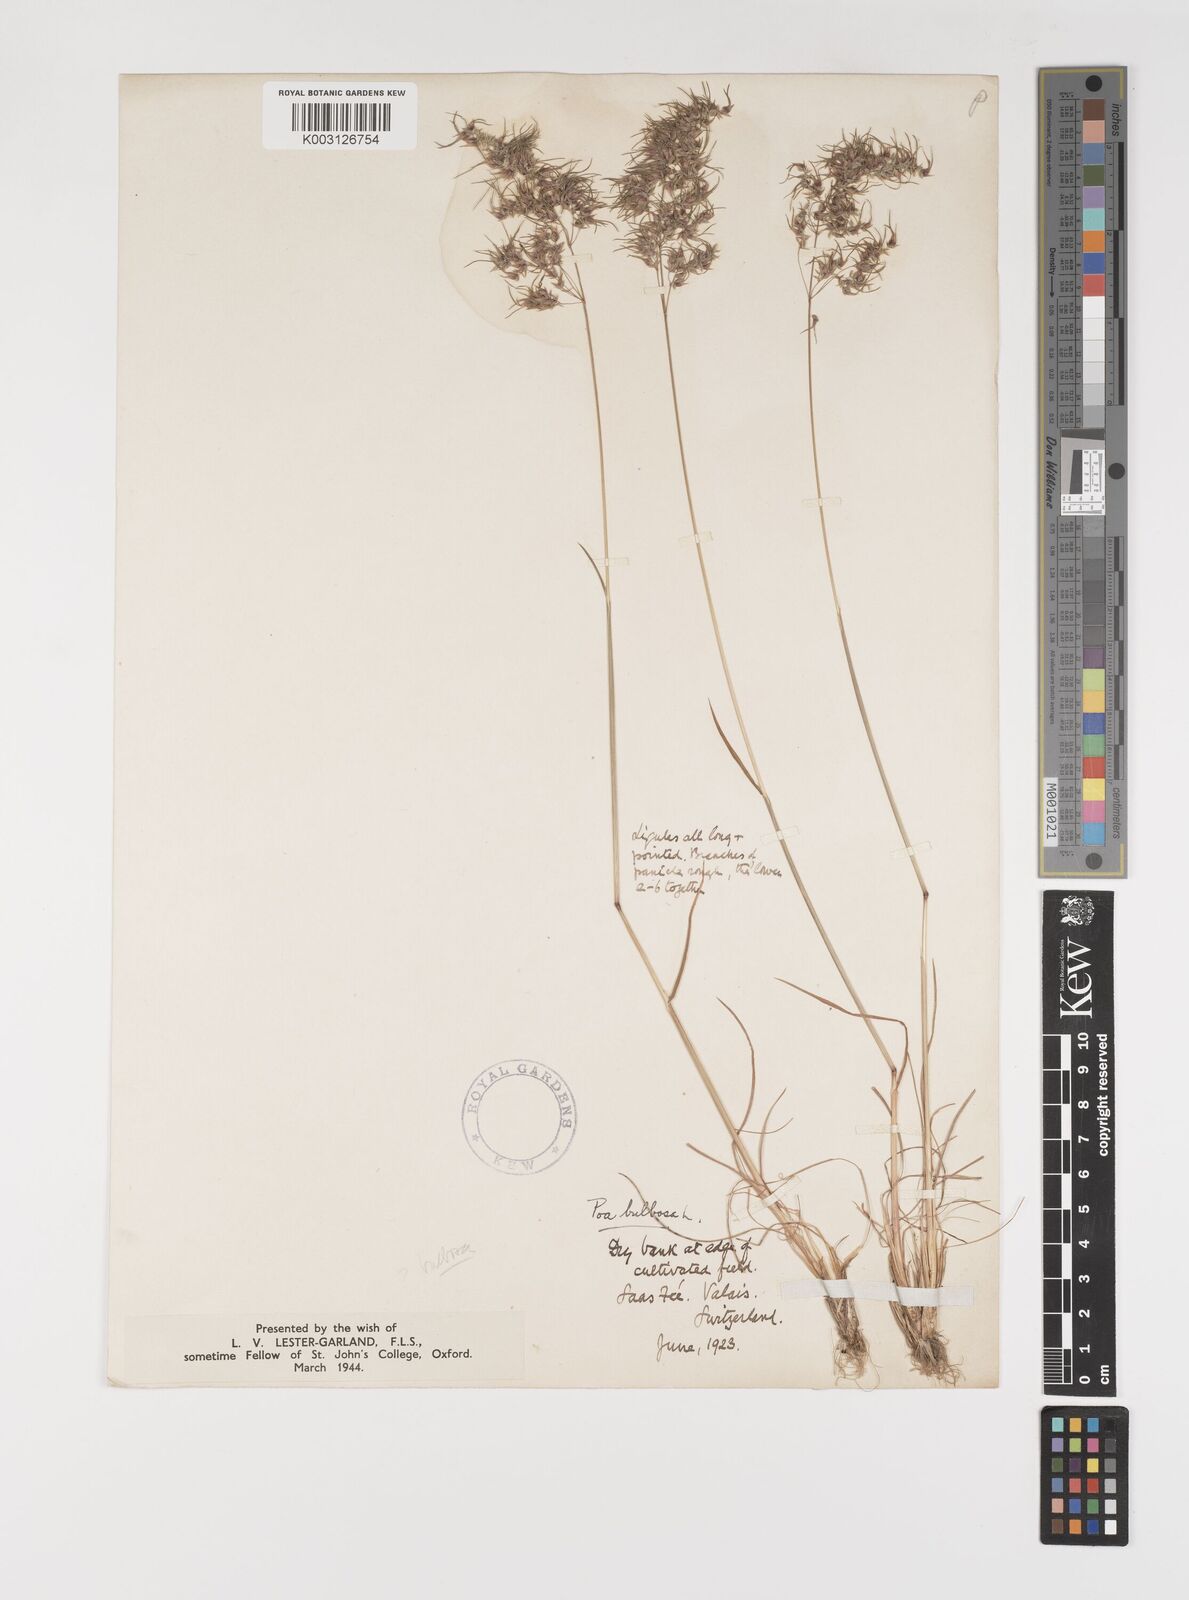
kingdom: Plantae
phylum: Tracheophyta
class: Liliopsida
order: Poales
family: Poaceae
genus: Poa
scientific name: Poa bulbosa
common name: Bulbous bluegrass
